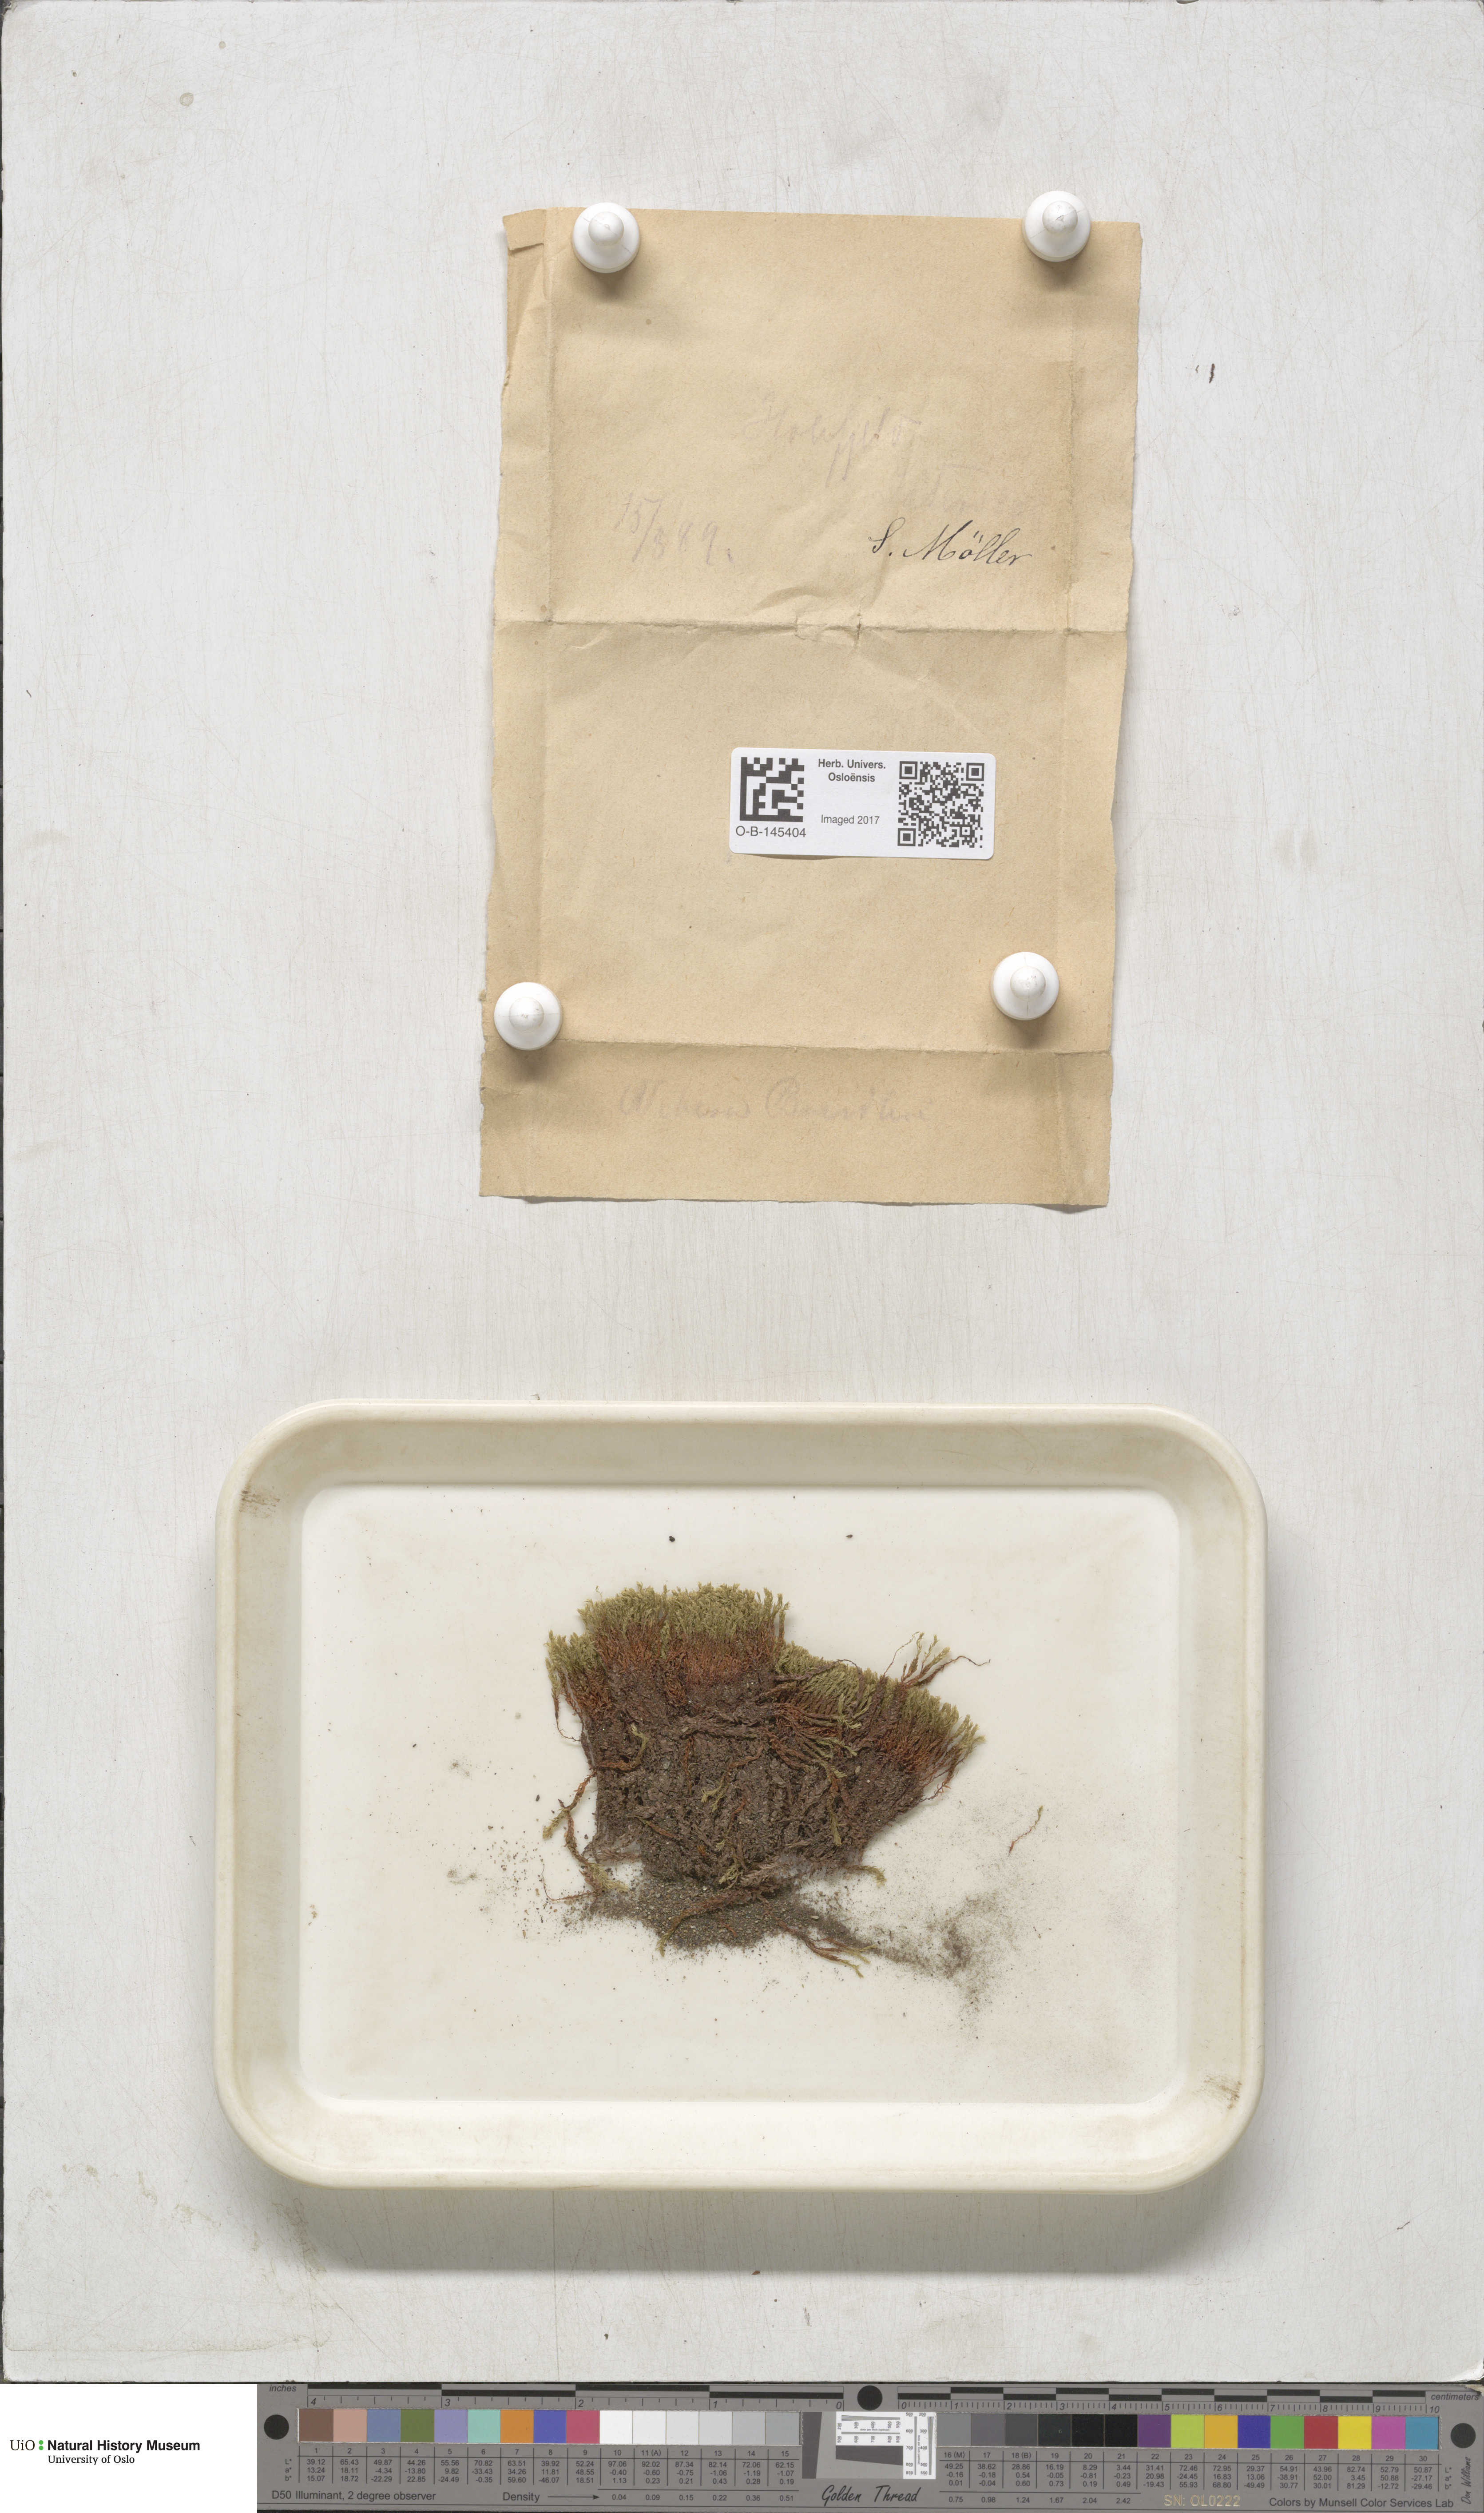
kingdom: Plantae
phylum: Bryophyta
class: Bryopsida
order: Bryales
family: Mniaceae
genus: Pohlia
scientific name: Pohlia ludwigii
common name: Ludwig's thread-moss
